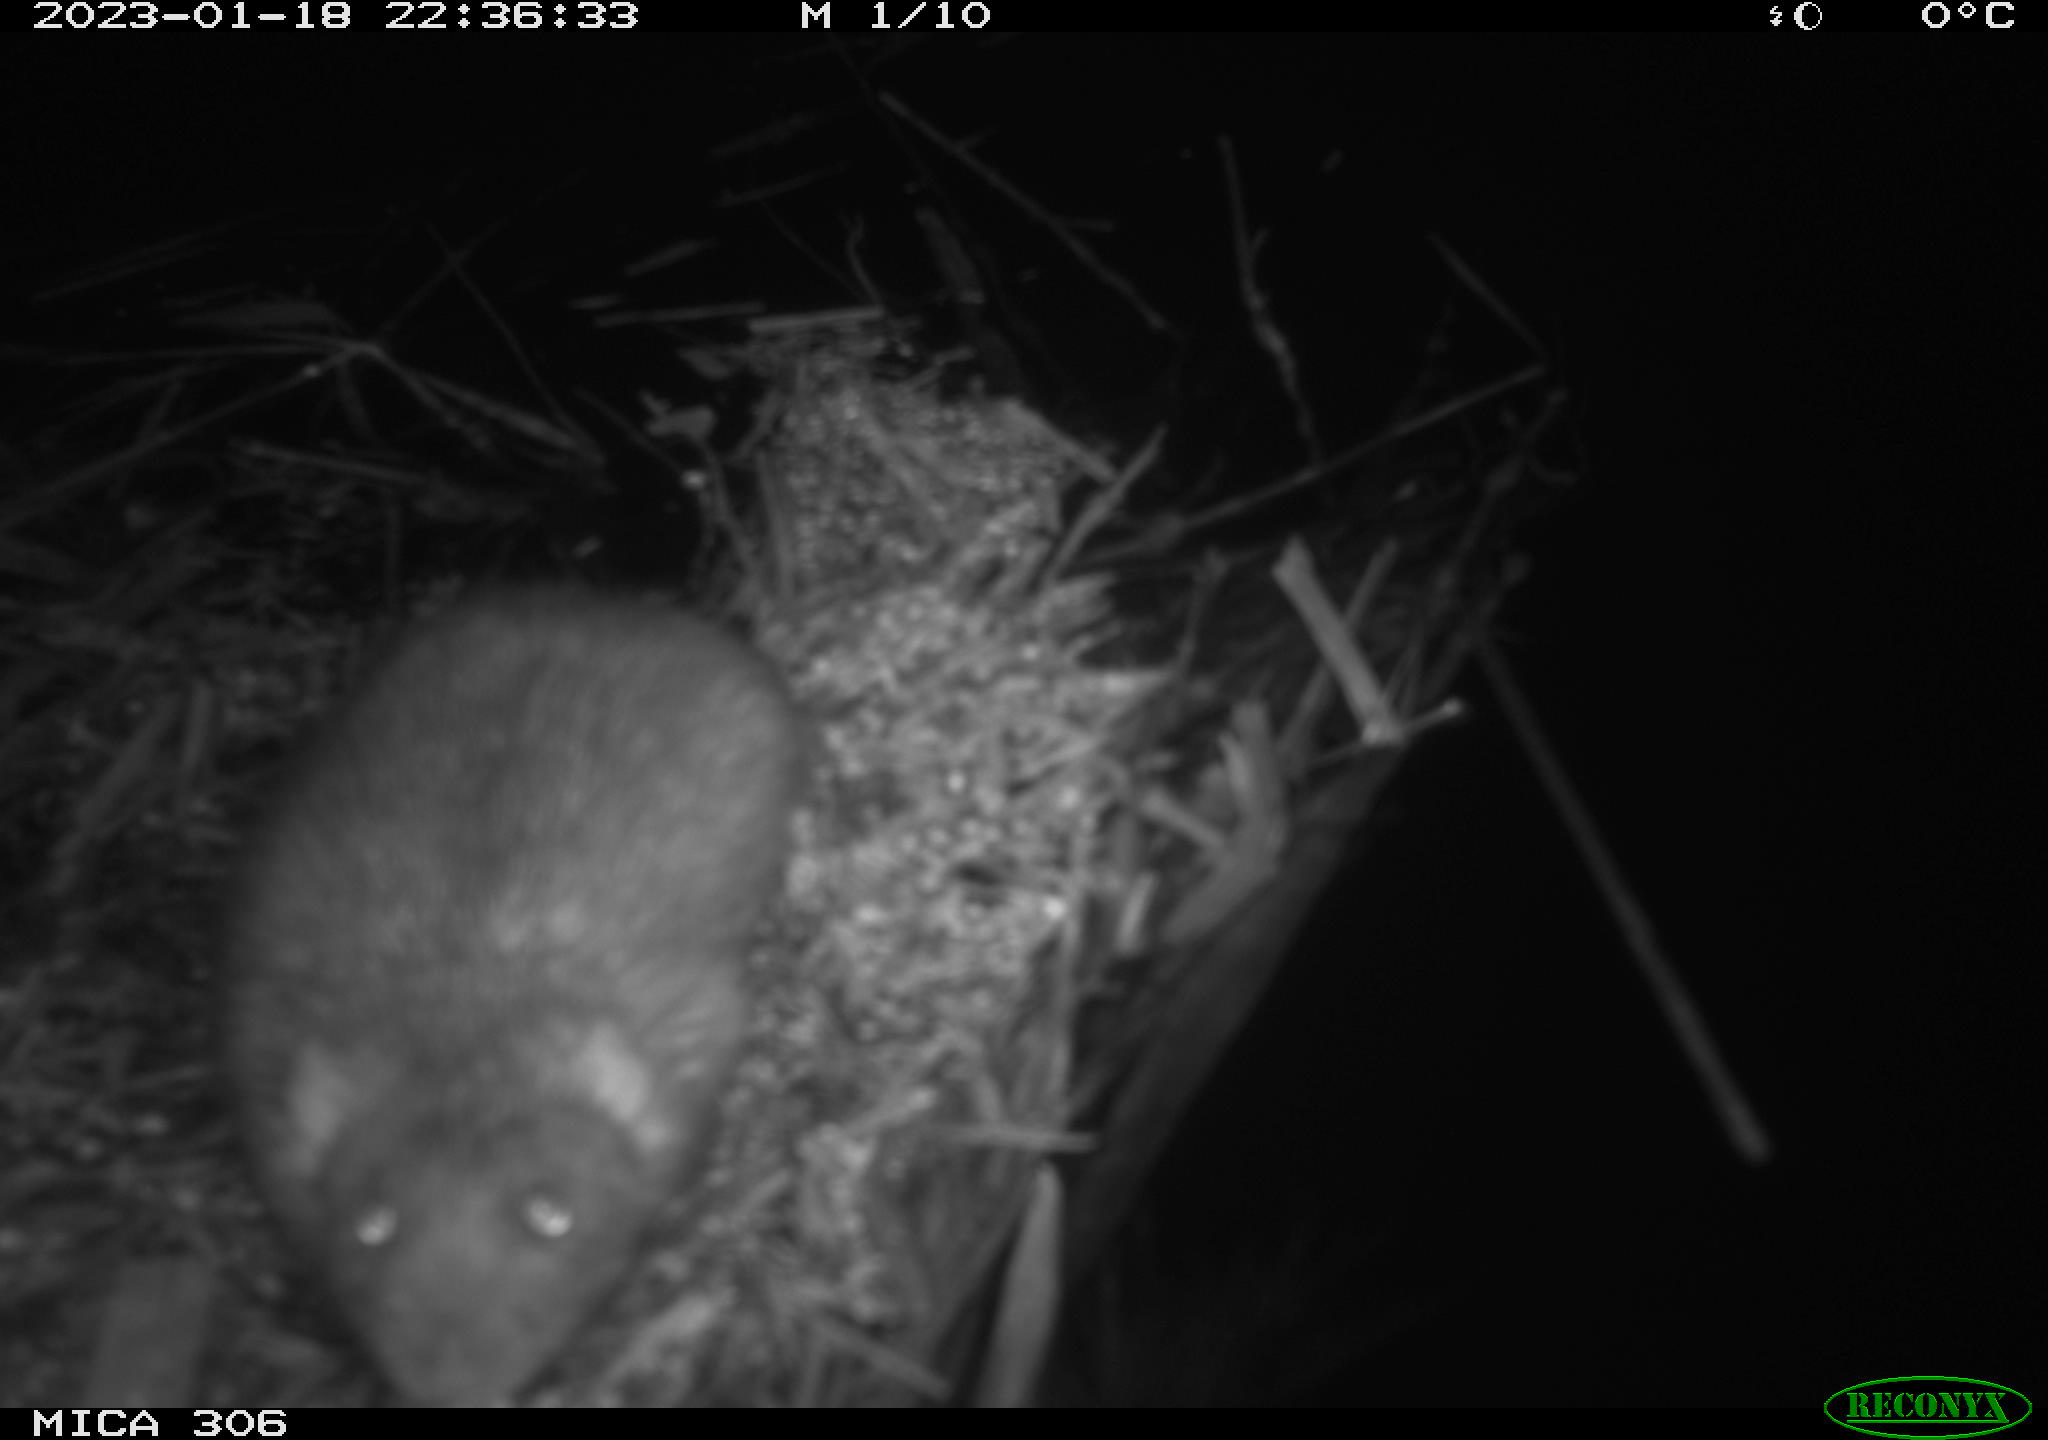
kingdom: Animalia
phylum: Chordata
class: Mammalia
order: Rodentia
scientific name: Rodentia
